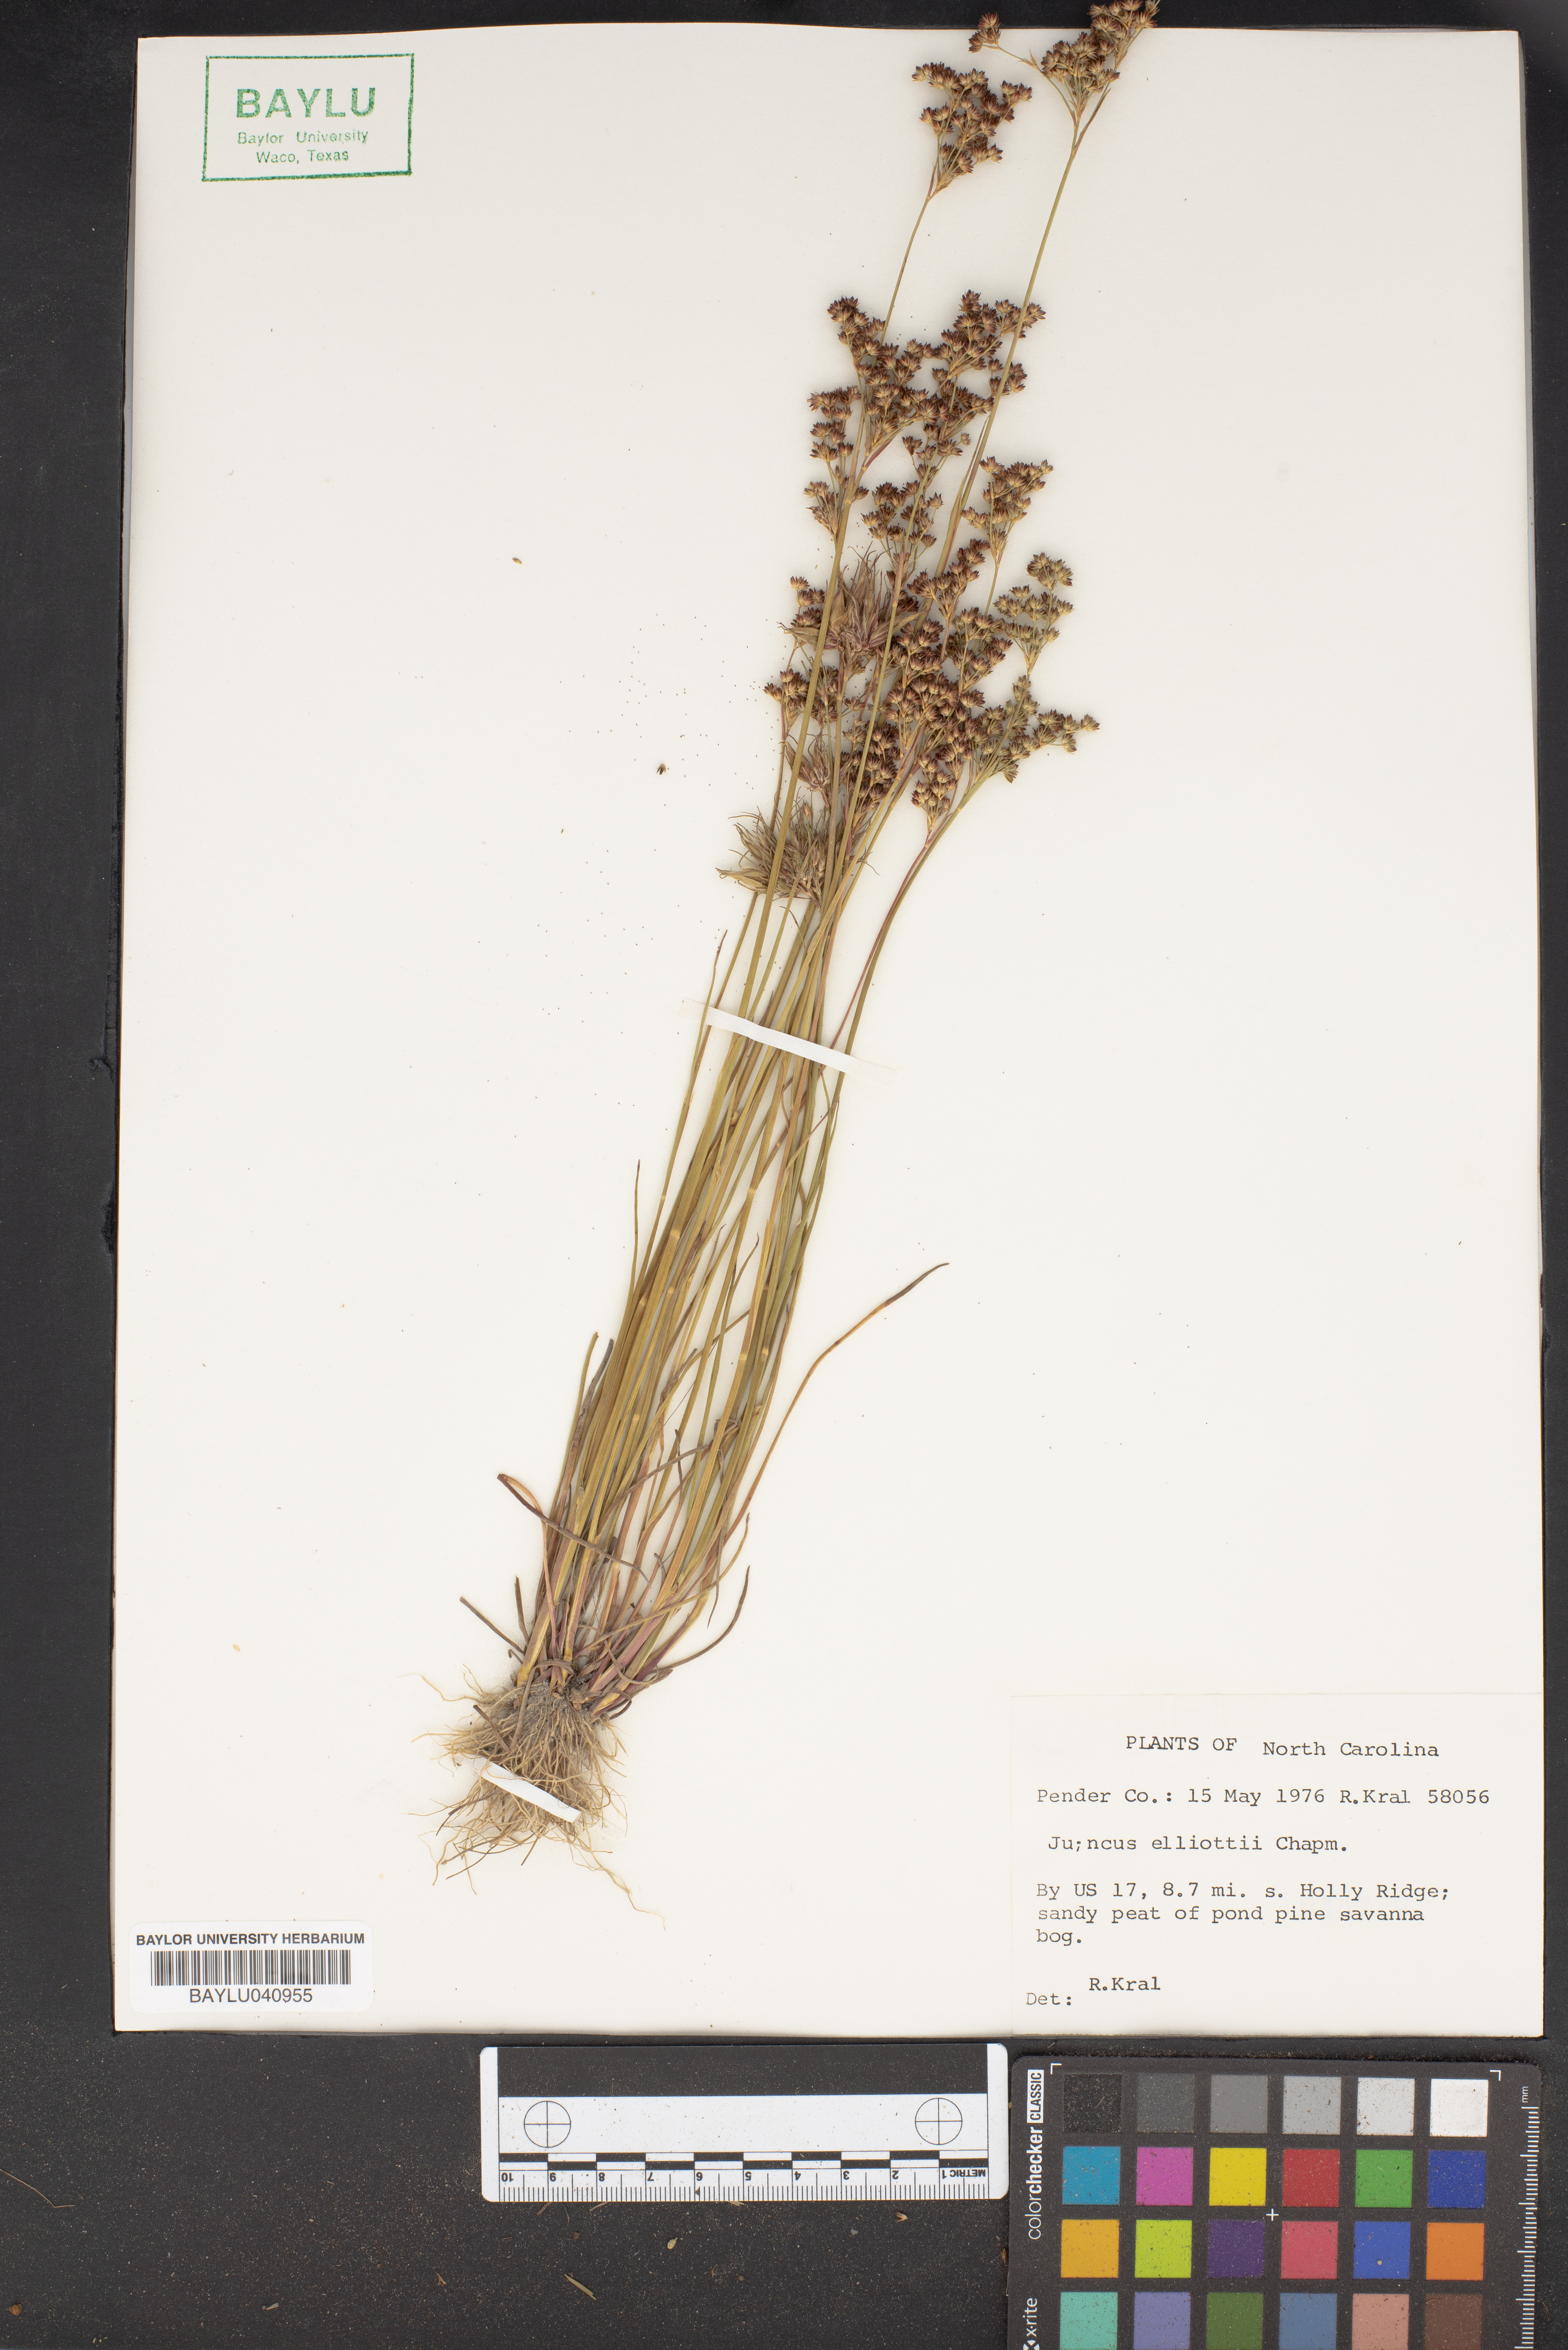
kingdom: Plantae
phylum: Tracheophyta
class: Liliopsida
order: Poales
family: Juncaceae
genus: Juncus
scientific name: Juncus elliottii
